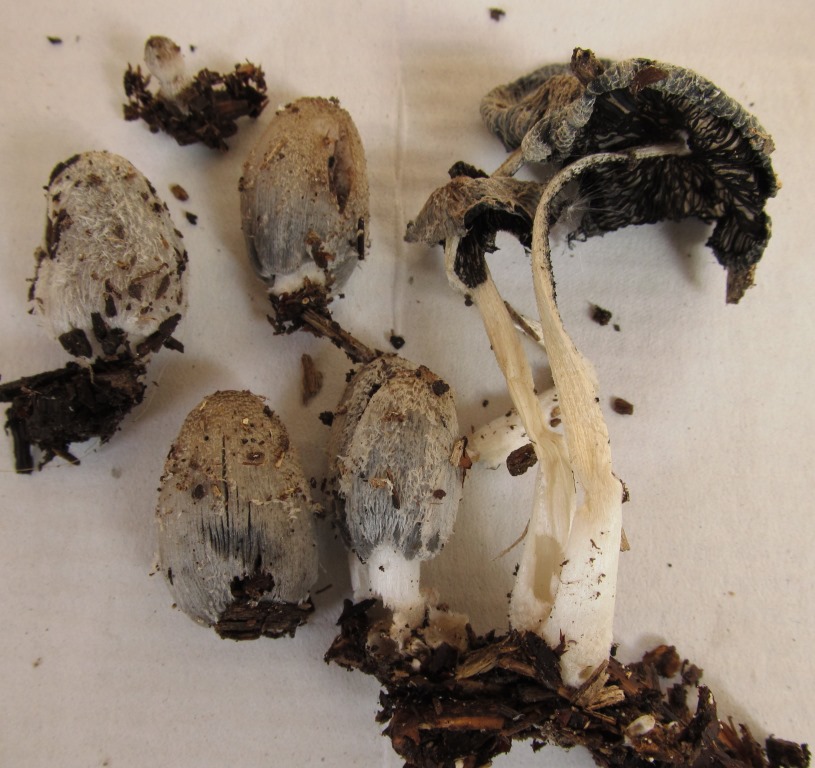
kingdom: Fungi
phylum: Basidiomycota
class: Agaricomycetes
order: Agaricales
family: Psathyrellaceae
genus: Coprinopsis
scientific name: Coprinopsis lagopus
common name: dunstokket blækhat
